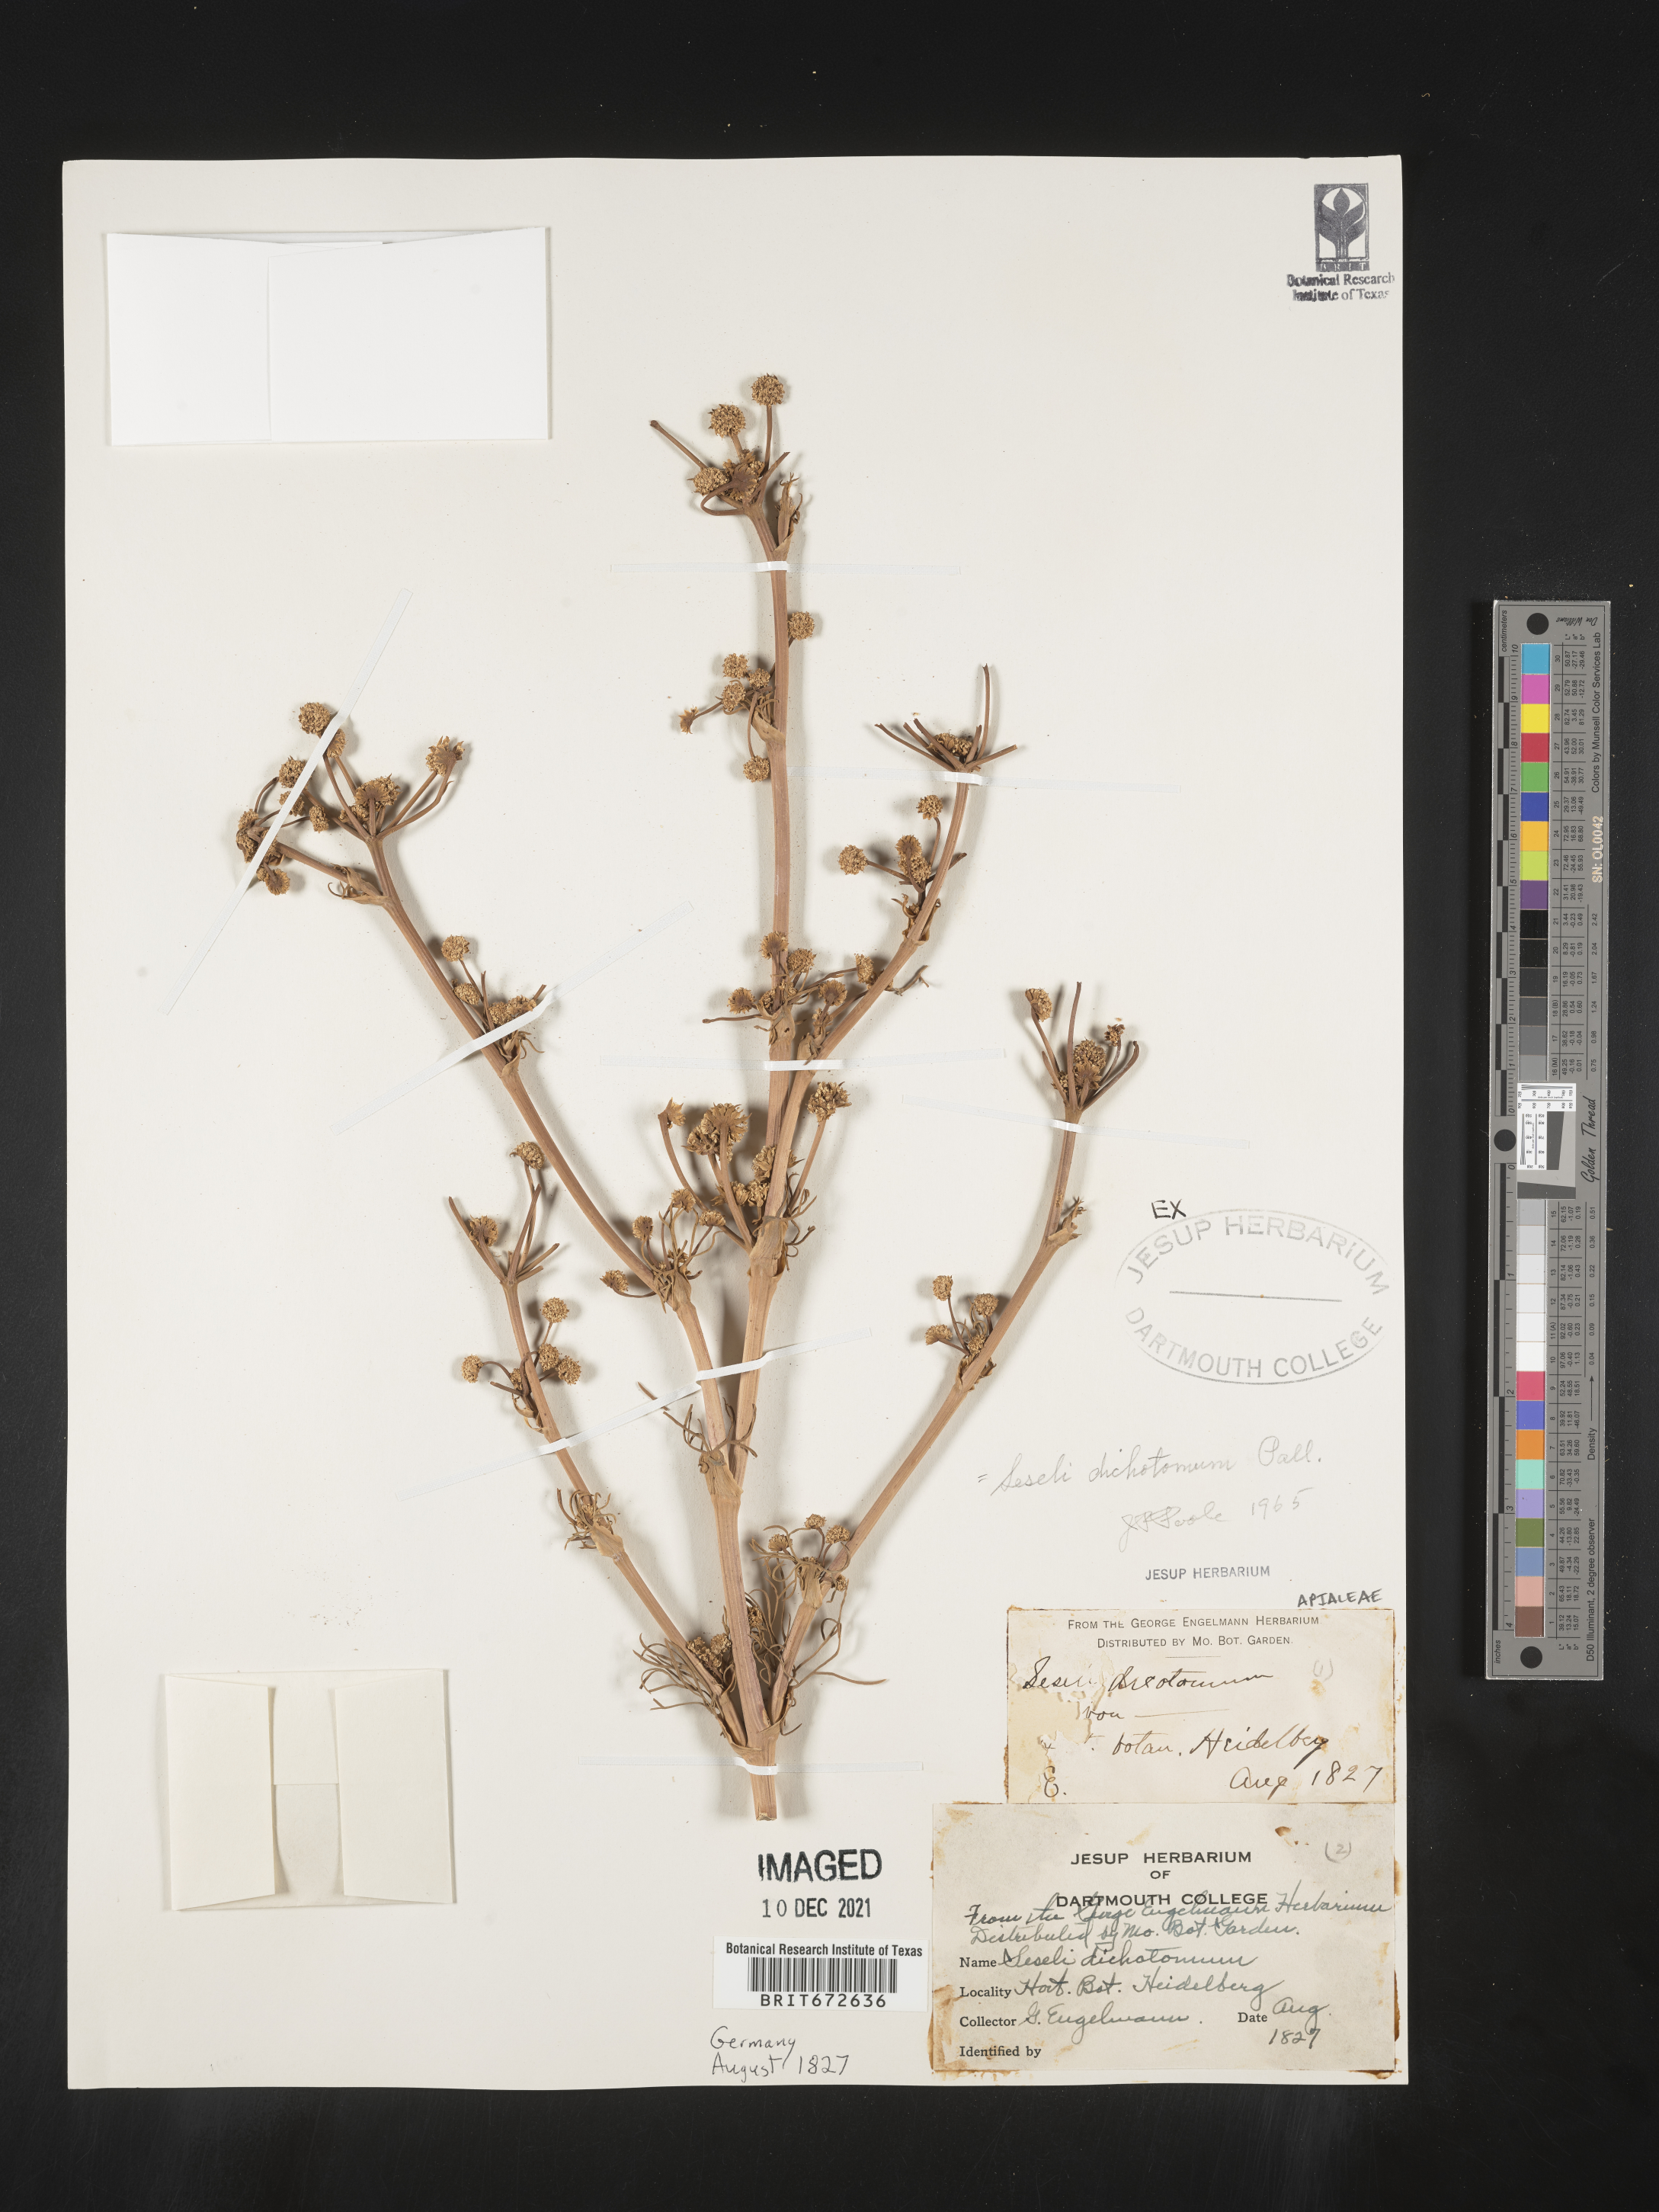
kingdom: Plantae
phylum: Tracheophyta
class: Magnoliopsida
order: Apiales
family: Apiaceae
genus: Seseli
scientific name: Seseli
